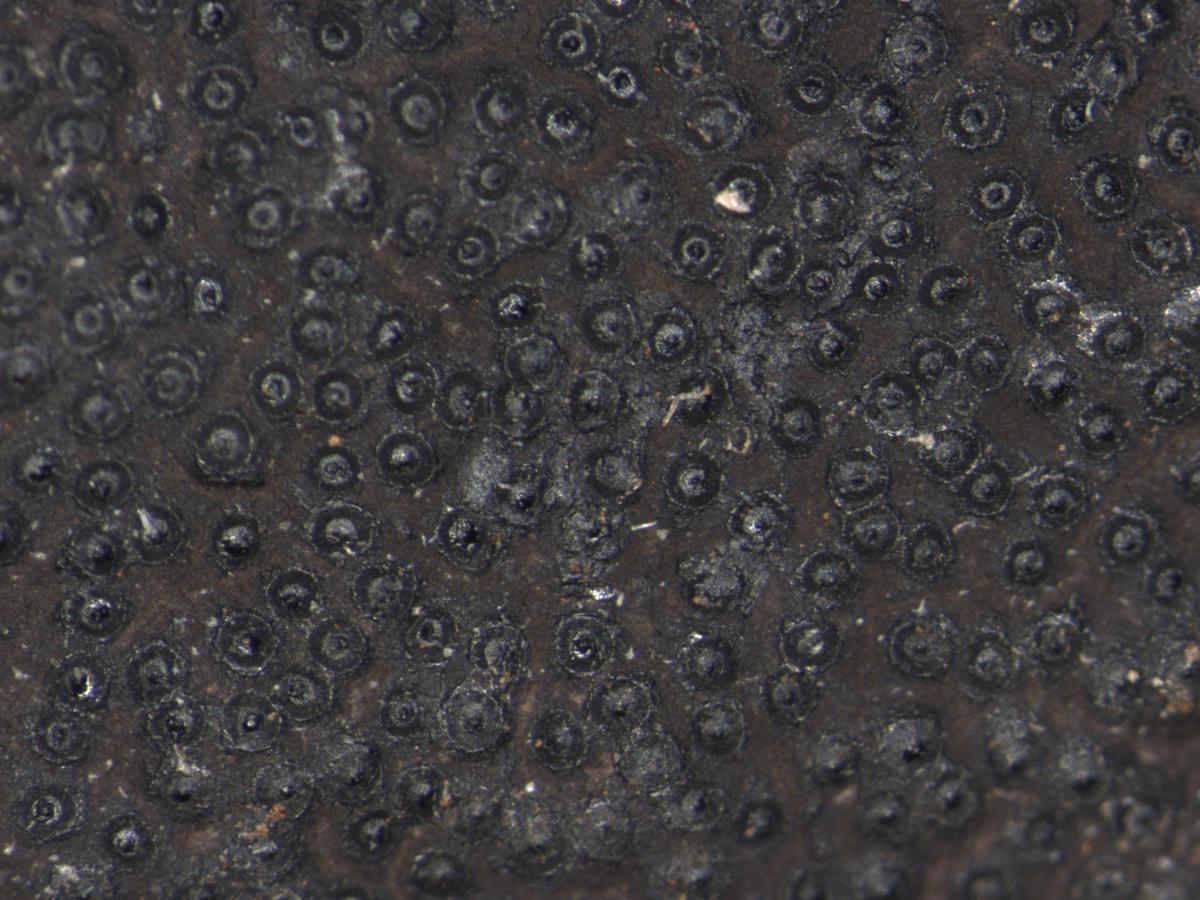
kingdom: Fungi
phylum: Ascomycota
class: Sordariomycetes
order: Xylariales
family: Hypoxylaceae
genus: Annulohypoxylon
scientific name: Annulohypoxylon stygium
